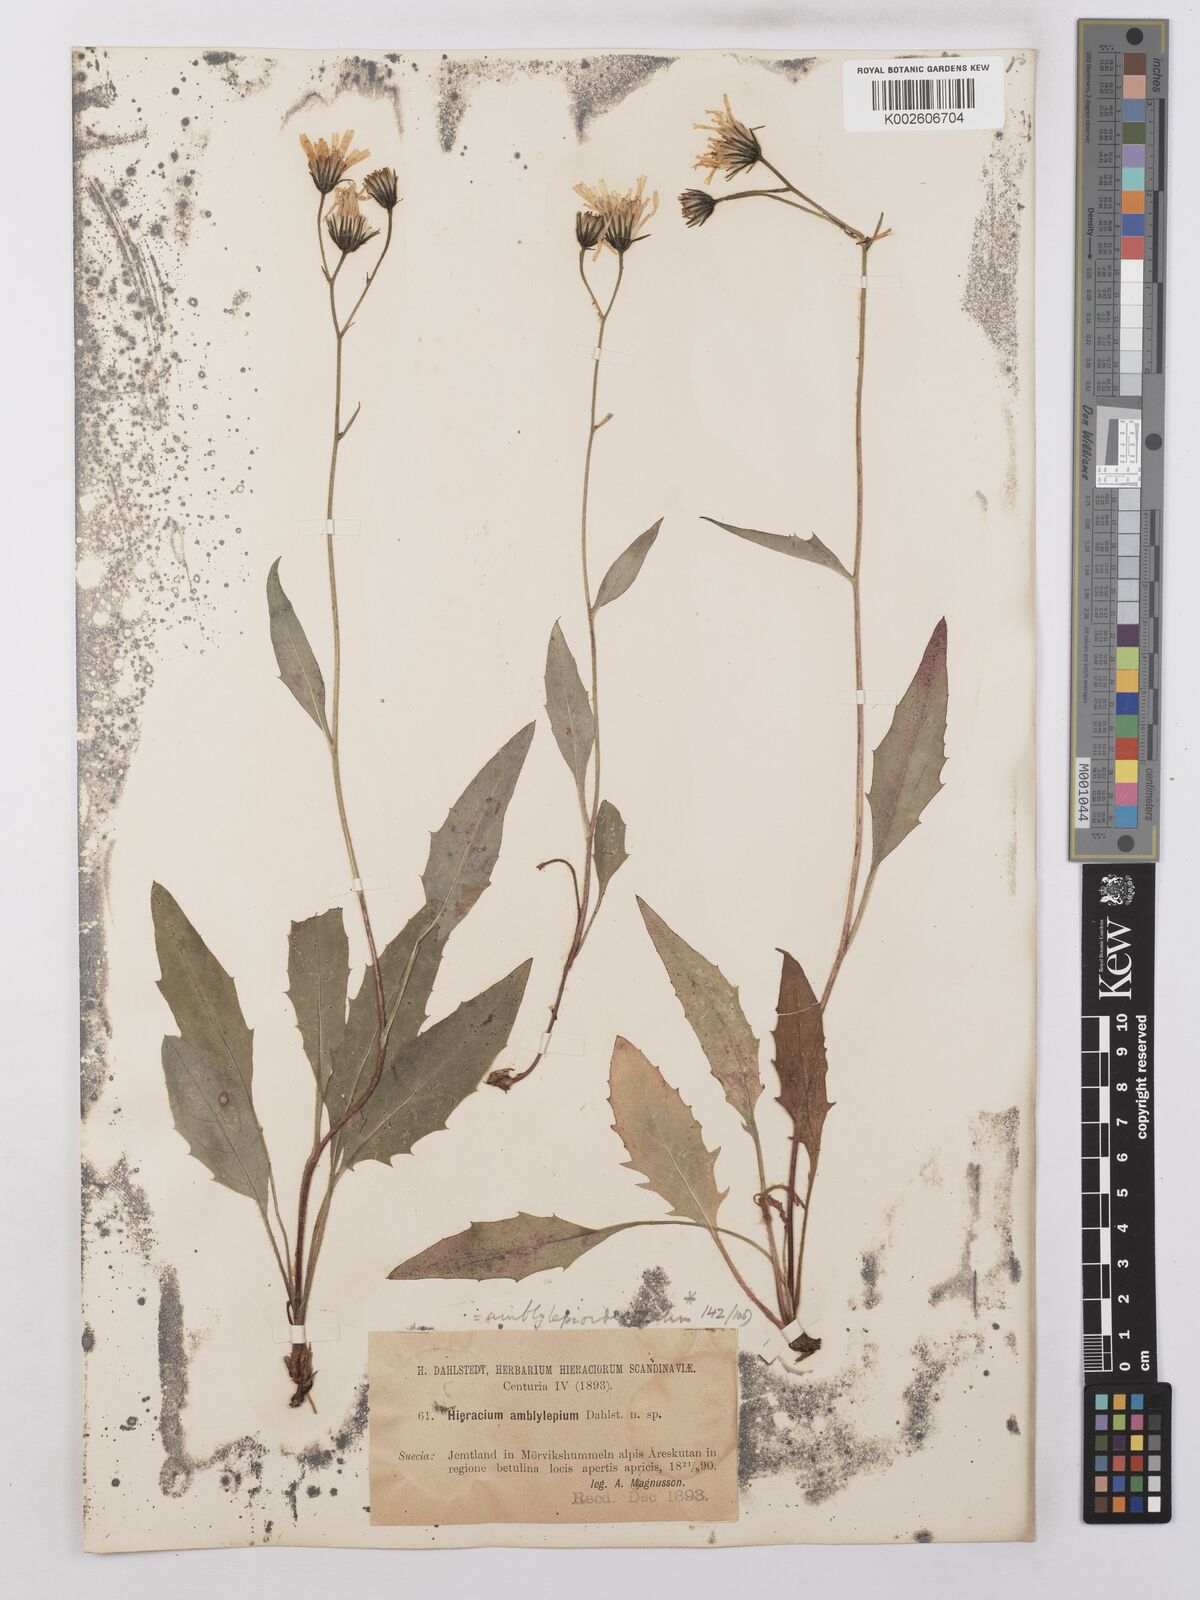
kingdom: Plantae
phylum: Tracheophyta
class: Magnoliopsida
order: Asterales
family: Asteraceae
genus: Hieracium
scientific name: Hieracium lachenalii
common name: Common hawkweed
